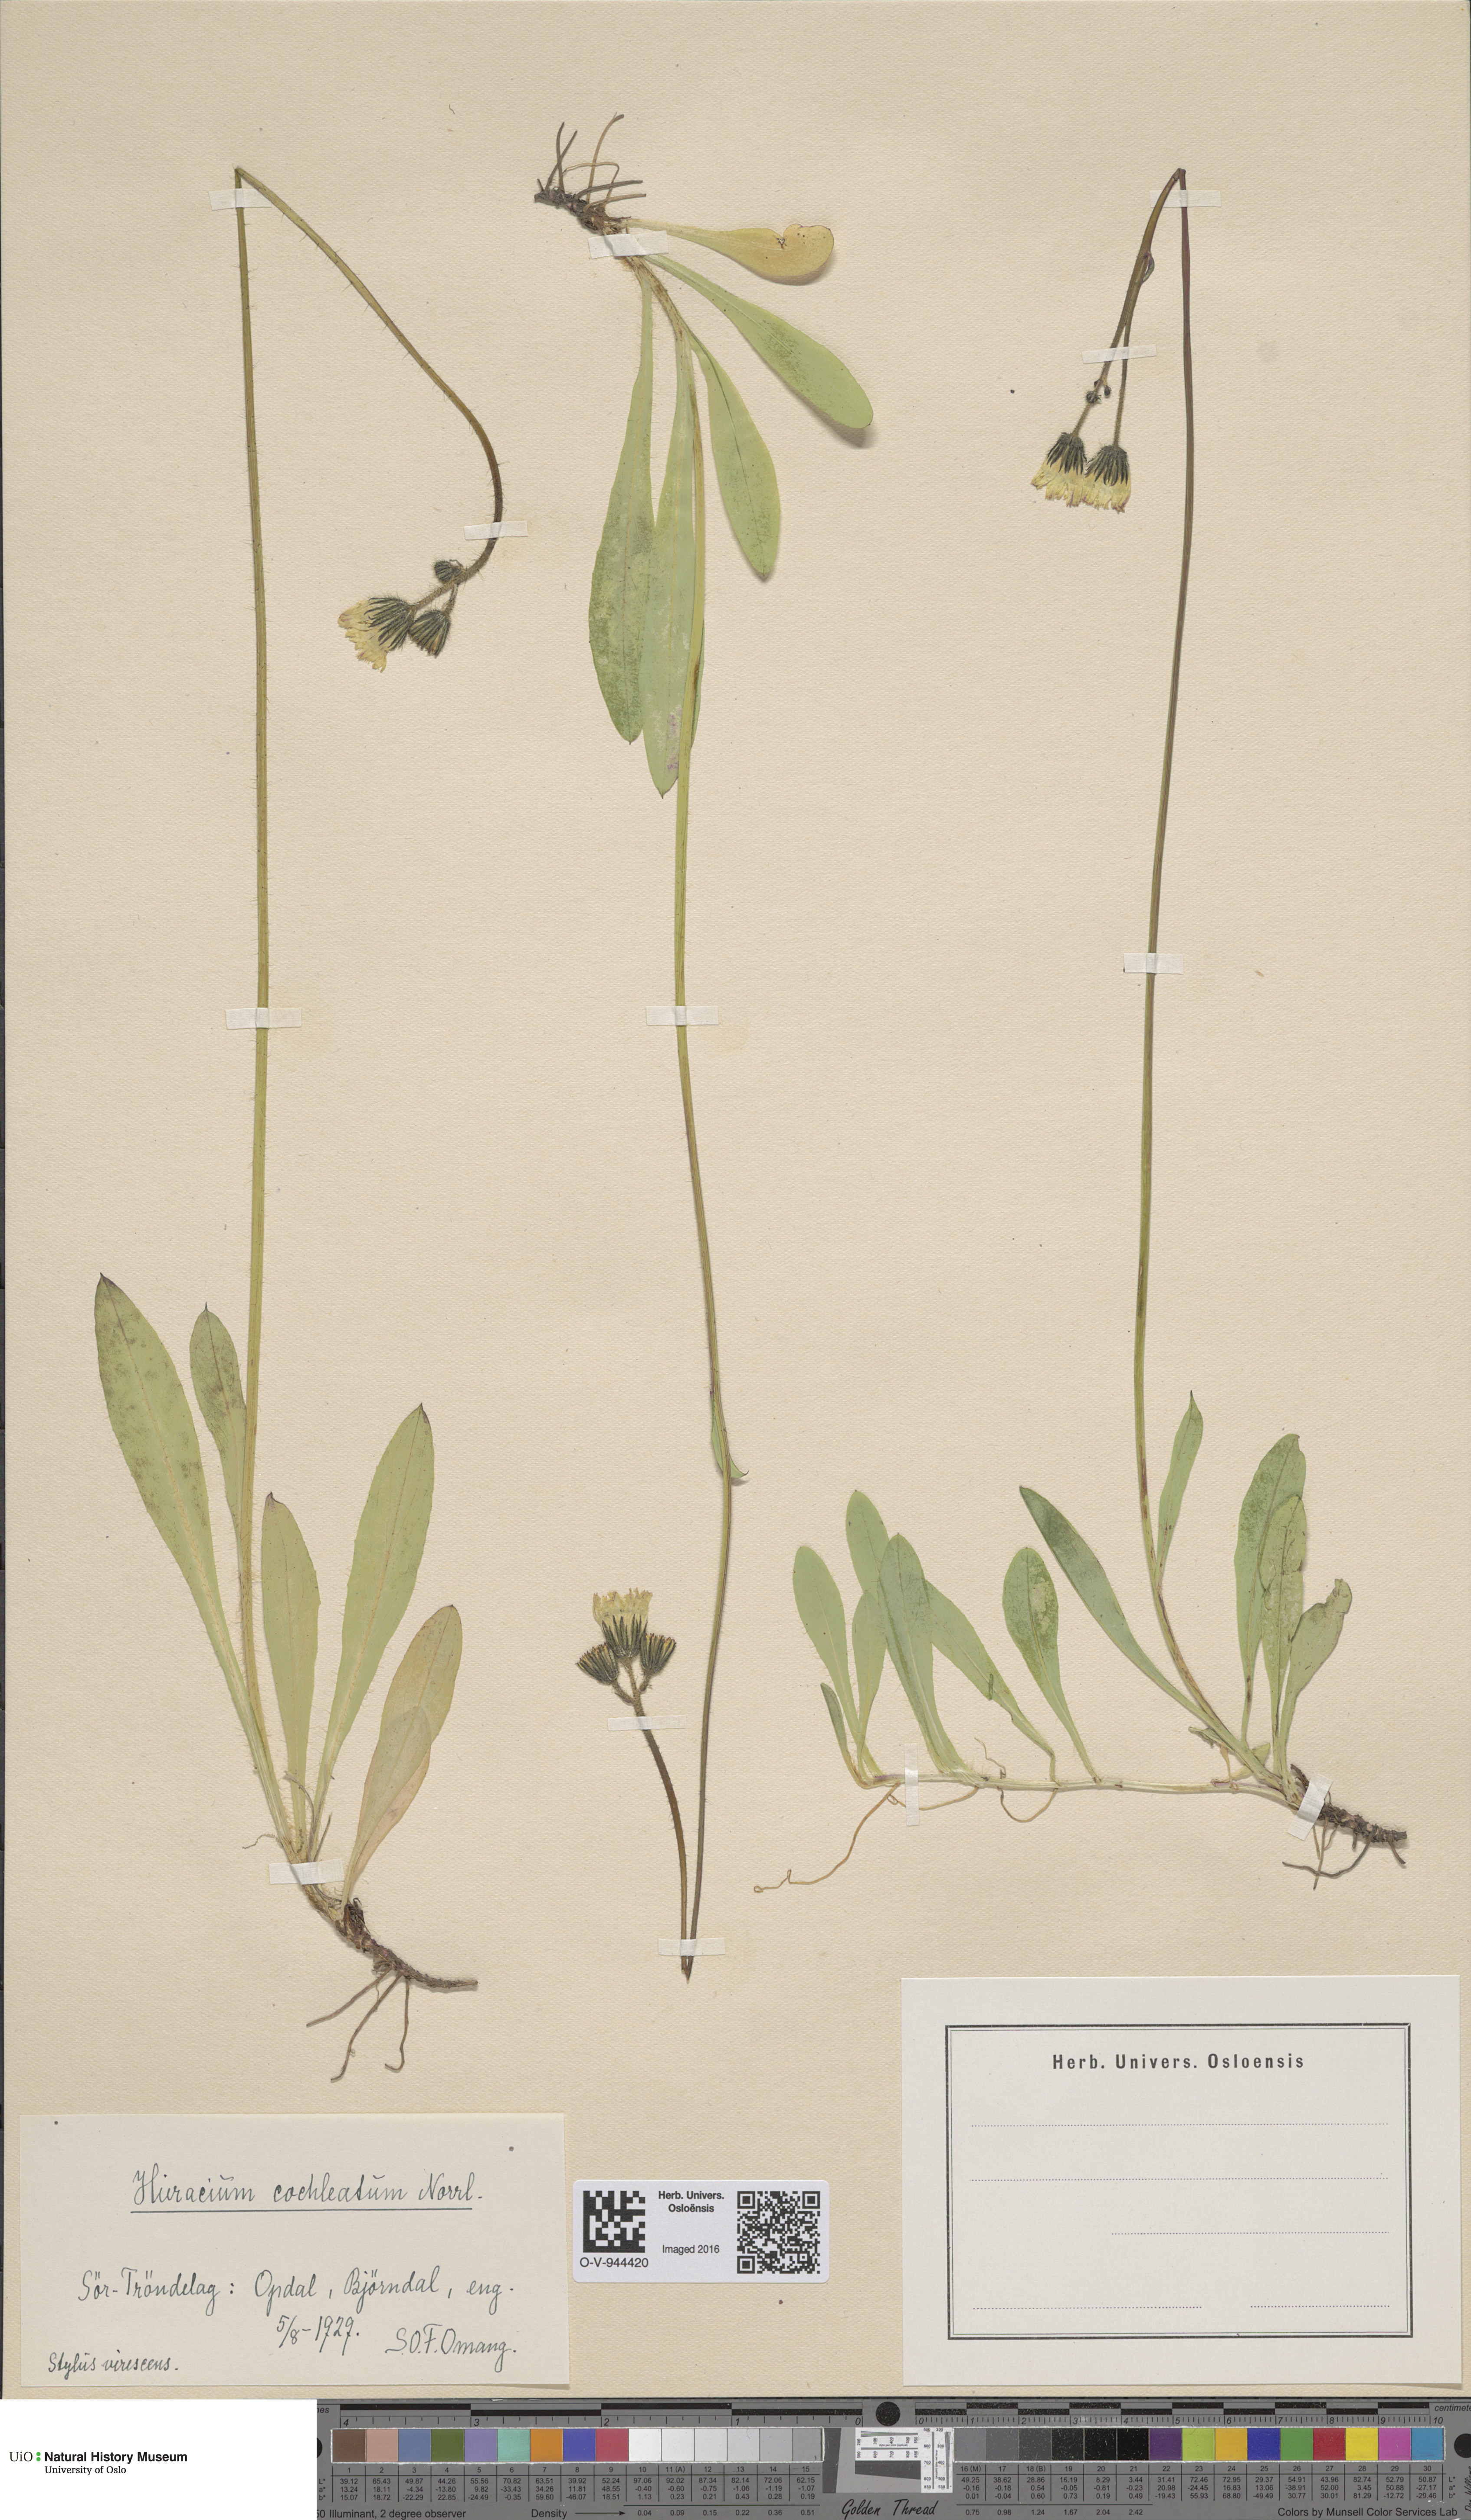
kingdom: Plantae
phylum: Tracheophyta
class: Magnoliopsida
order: Asterales
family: Asteraceae
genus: Pilosella
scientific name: Pilosella floribunda
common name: Glaucous hawkweed
